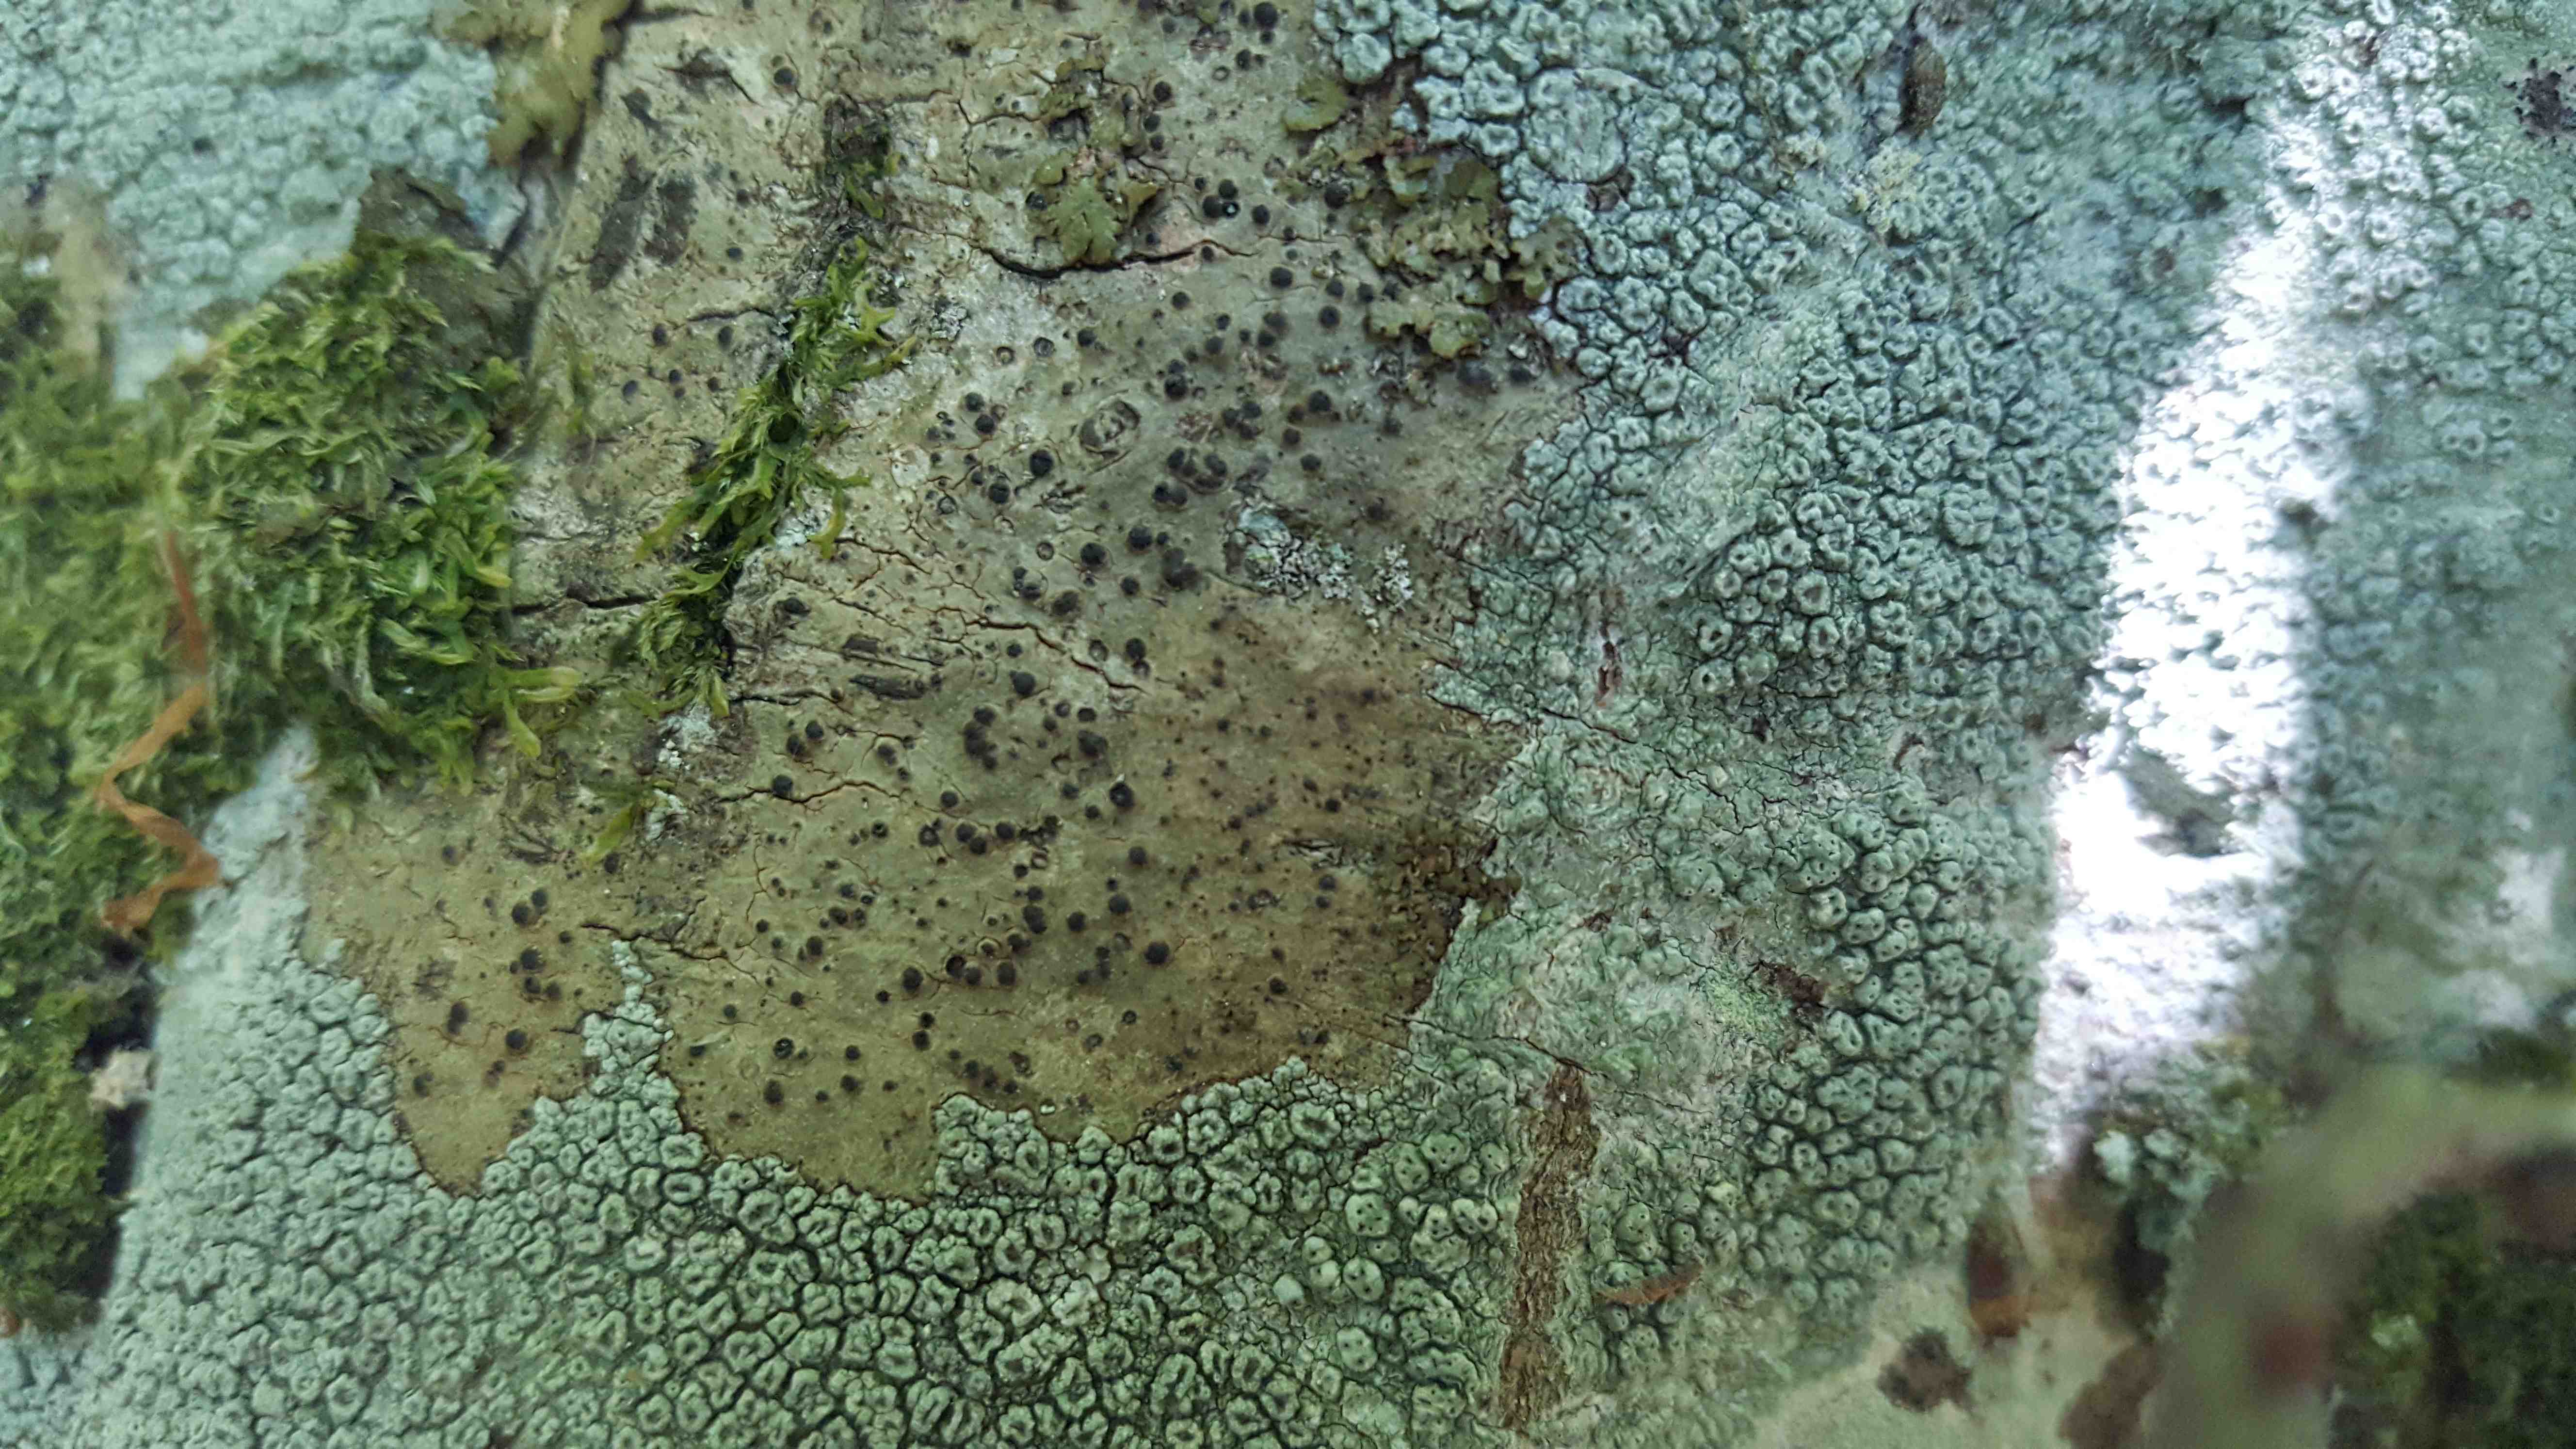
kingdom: Fungi
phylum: Ascomycota
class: Eurotiomycetes
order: Pyrenulales
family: Pyrenulaceae
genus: Pyrenula
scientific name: Pyrenula nitida
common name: glinsende kernelav
